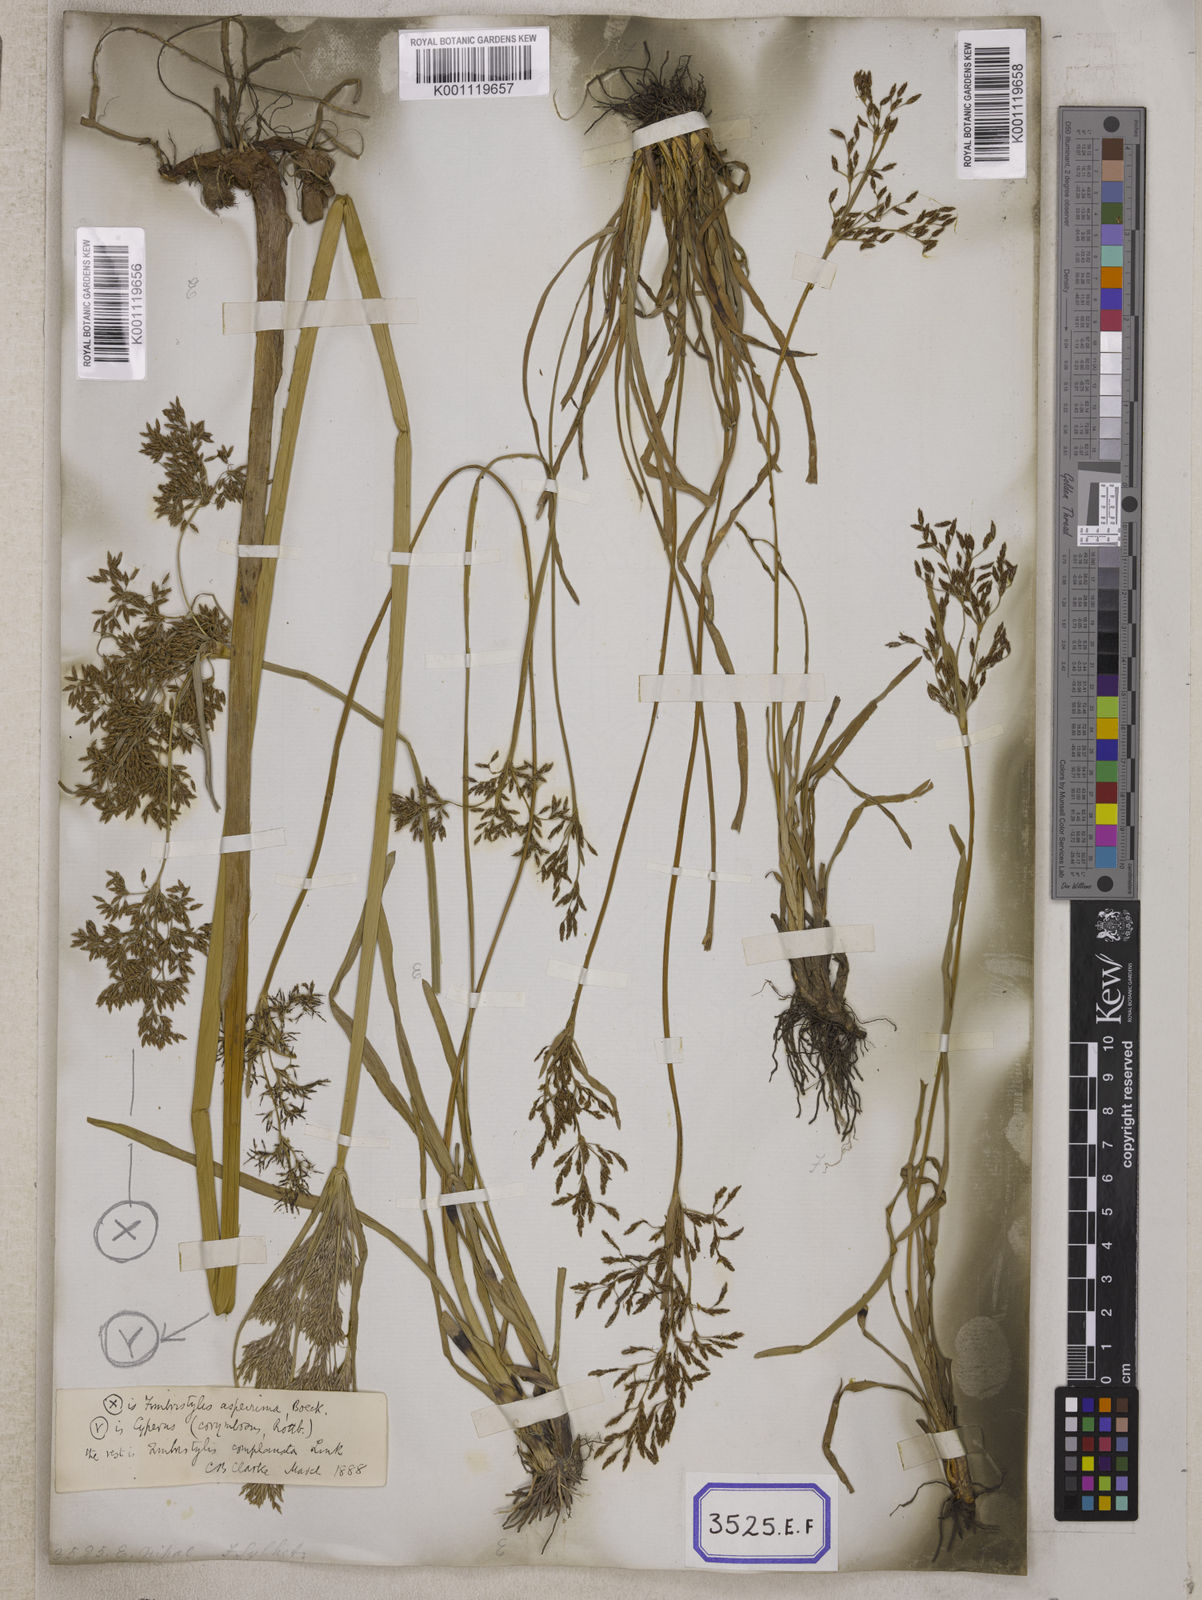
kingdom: Plantae
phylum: Tracheophyta
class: Liliopsida
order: Poales
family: Cyperaceae
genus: Fimbristylis
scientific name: Fimbristylis
